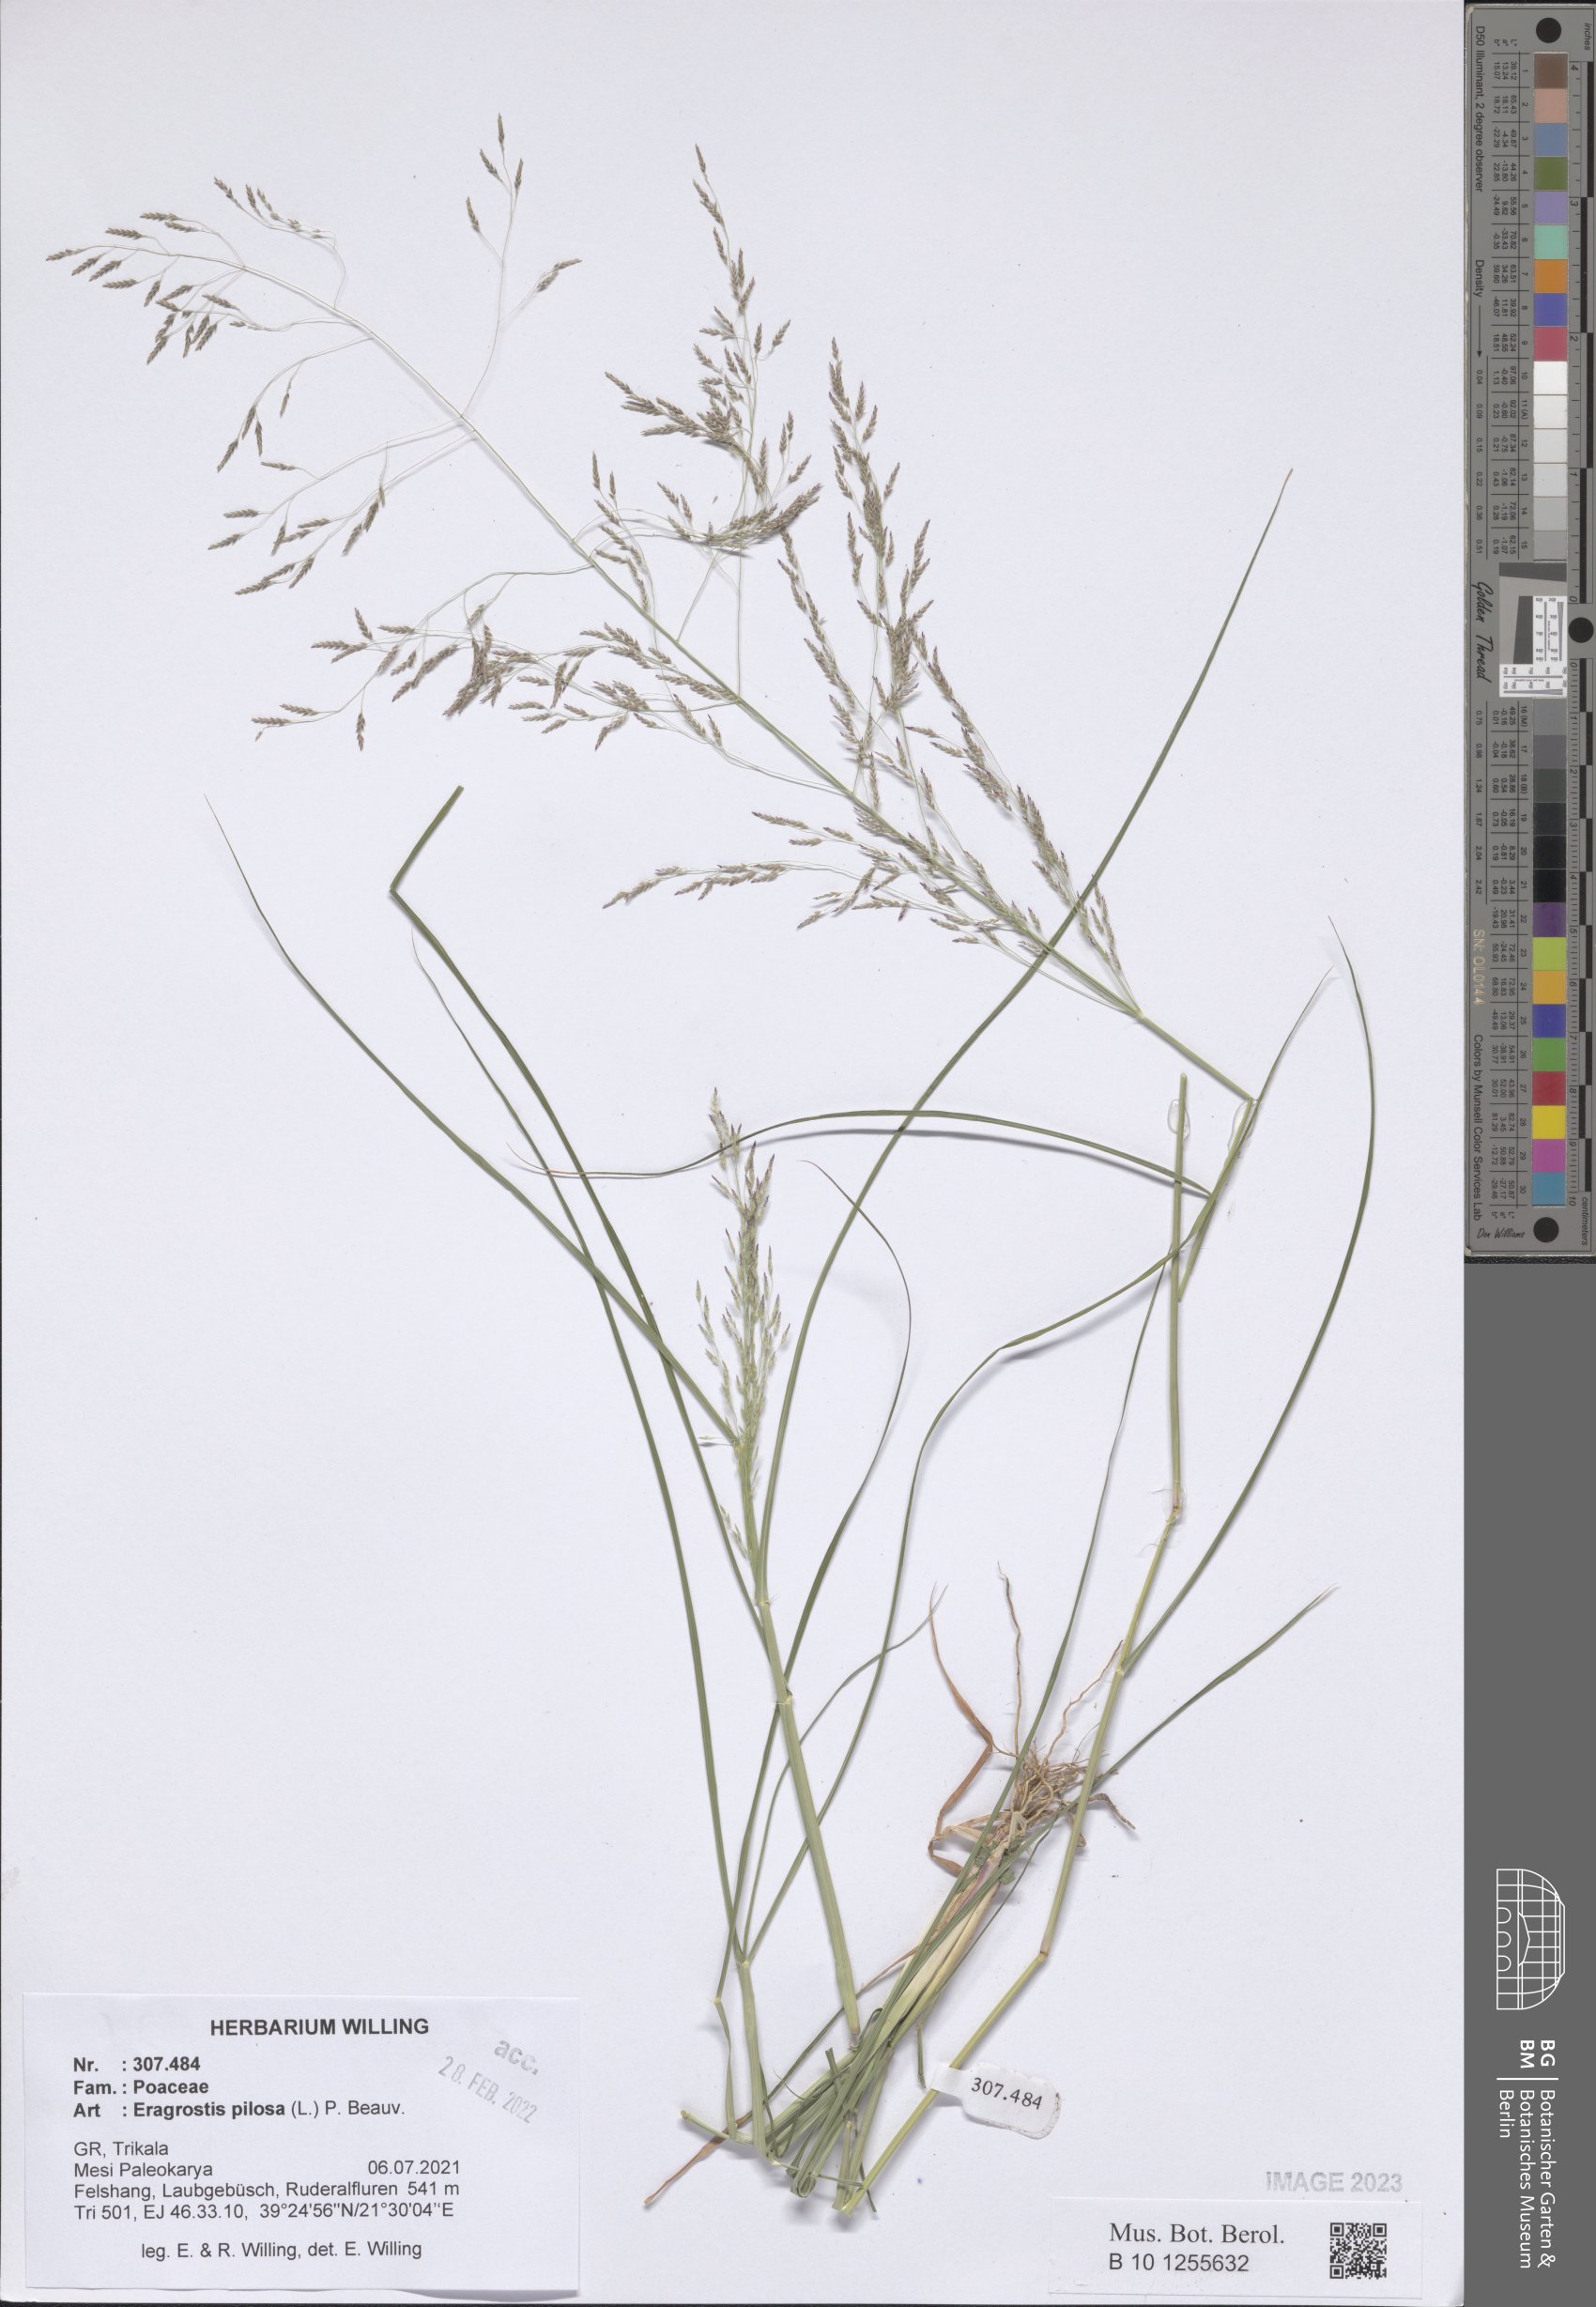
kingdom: Plantae
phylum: Tracheophyta
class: Liliopsida
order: Poales
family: Poaceae
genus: Eragrostis
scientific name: Eragrostis pilosa
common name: Indian lovegrass
